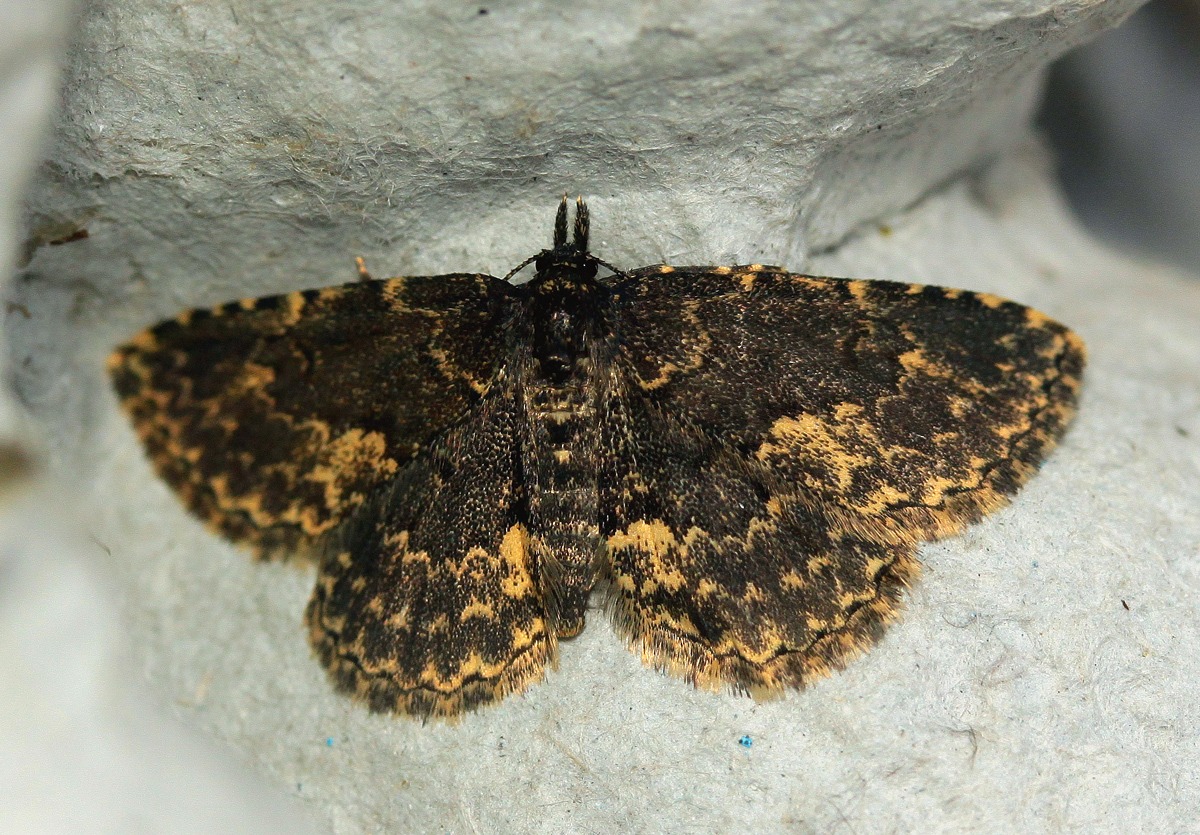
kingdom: Animalia
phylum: Arthropoda
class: Insecta
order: Lepidoptera
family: Erebidae
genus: Parascotia
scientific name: Parascotia fuliginaria
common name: Svampeugle
